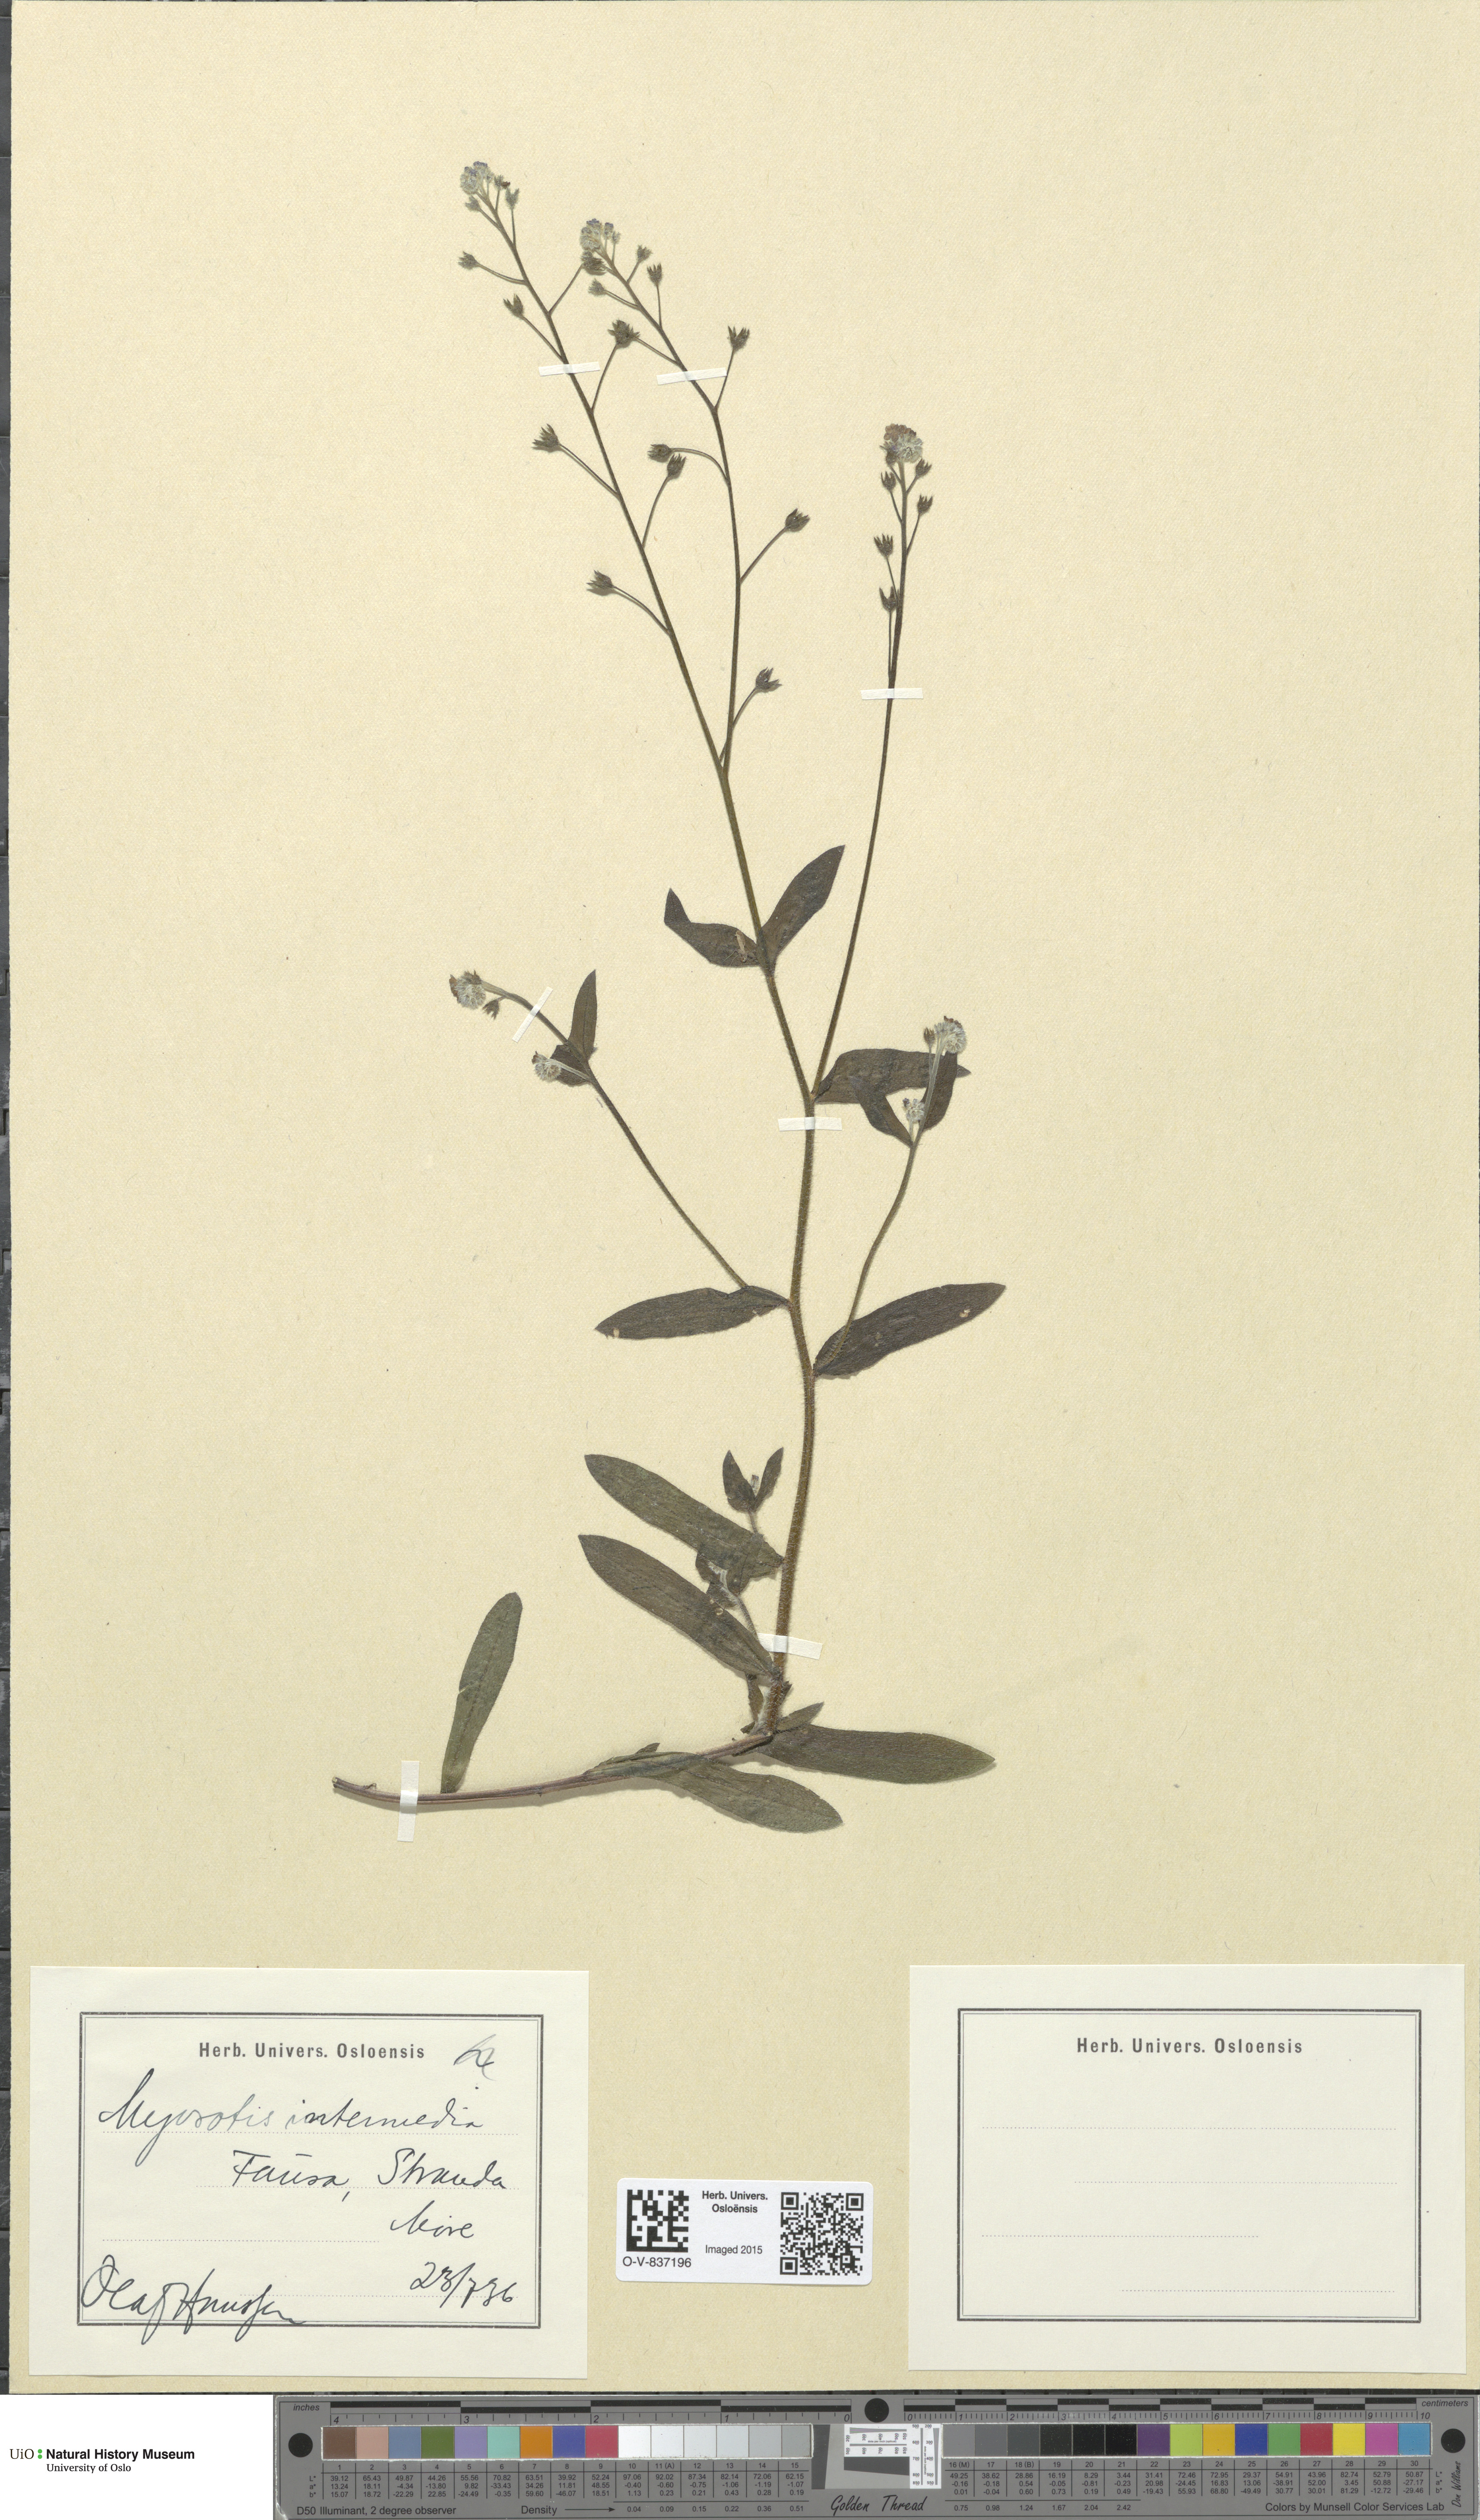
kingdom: Plantae
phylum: Tracheophyta
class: Magnoliopsida
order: Boraginales
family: Boraginaceae
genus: Myosotis
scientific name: Myosotis arvensis
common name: Field forget-me-not
